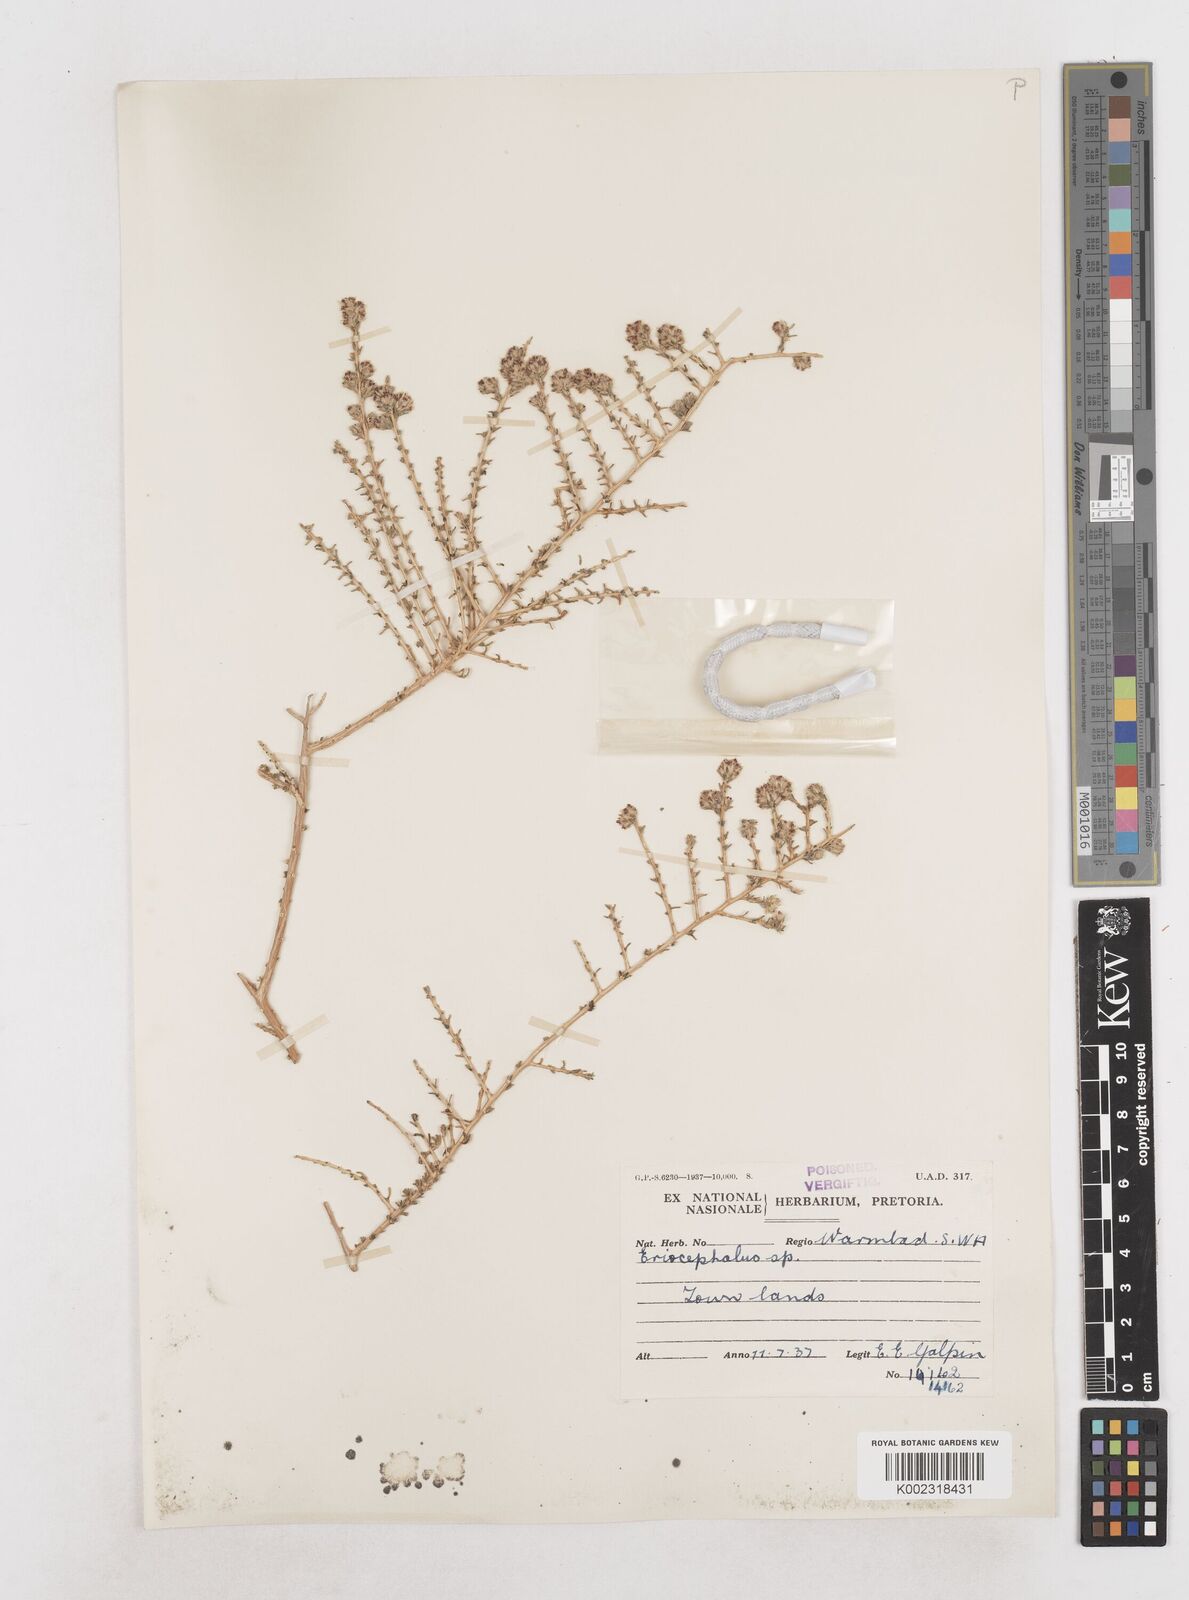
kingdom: Plantae
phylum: Tracheophyta
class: Magnoliopsida
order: Asterales
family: Asteraceae
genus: Eriocephalus
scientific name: Eriocephalus
